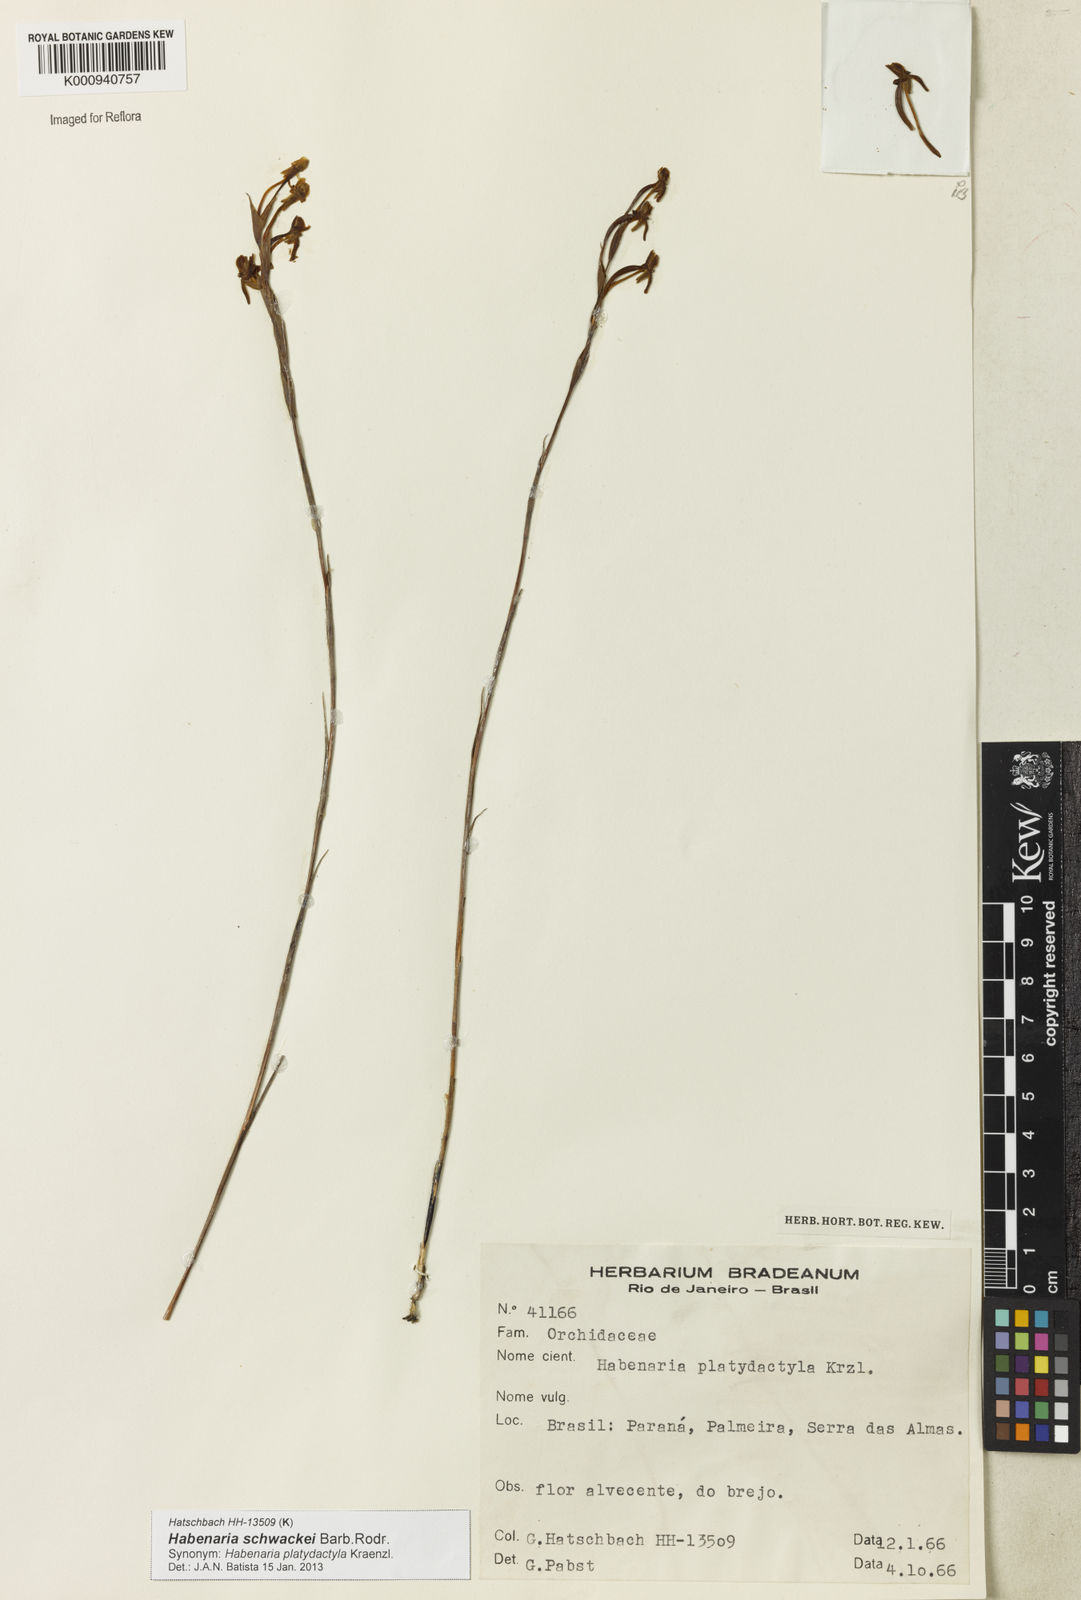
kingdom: Plantae
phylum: Tracheophyta
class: Liliopsida
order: Asparagales
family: Orchidaceae
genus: Habenaria
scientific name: Habenaria leprieurii
